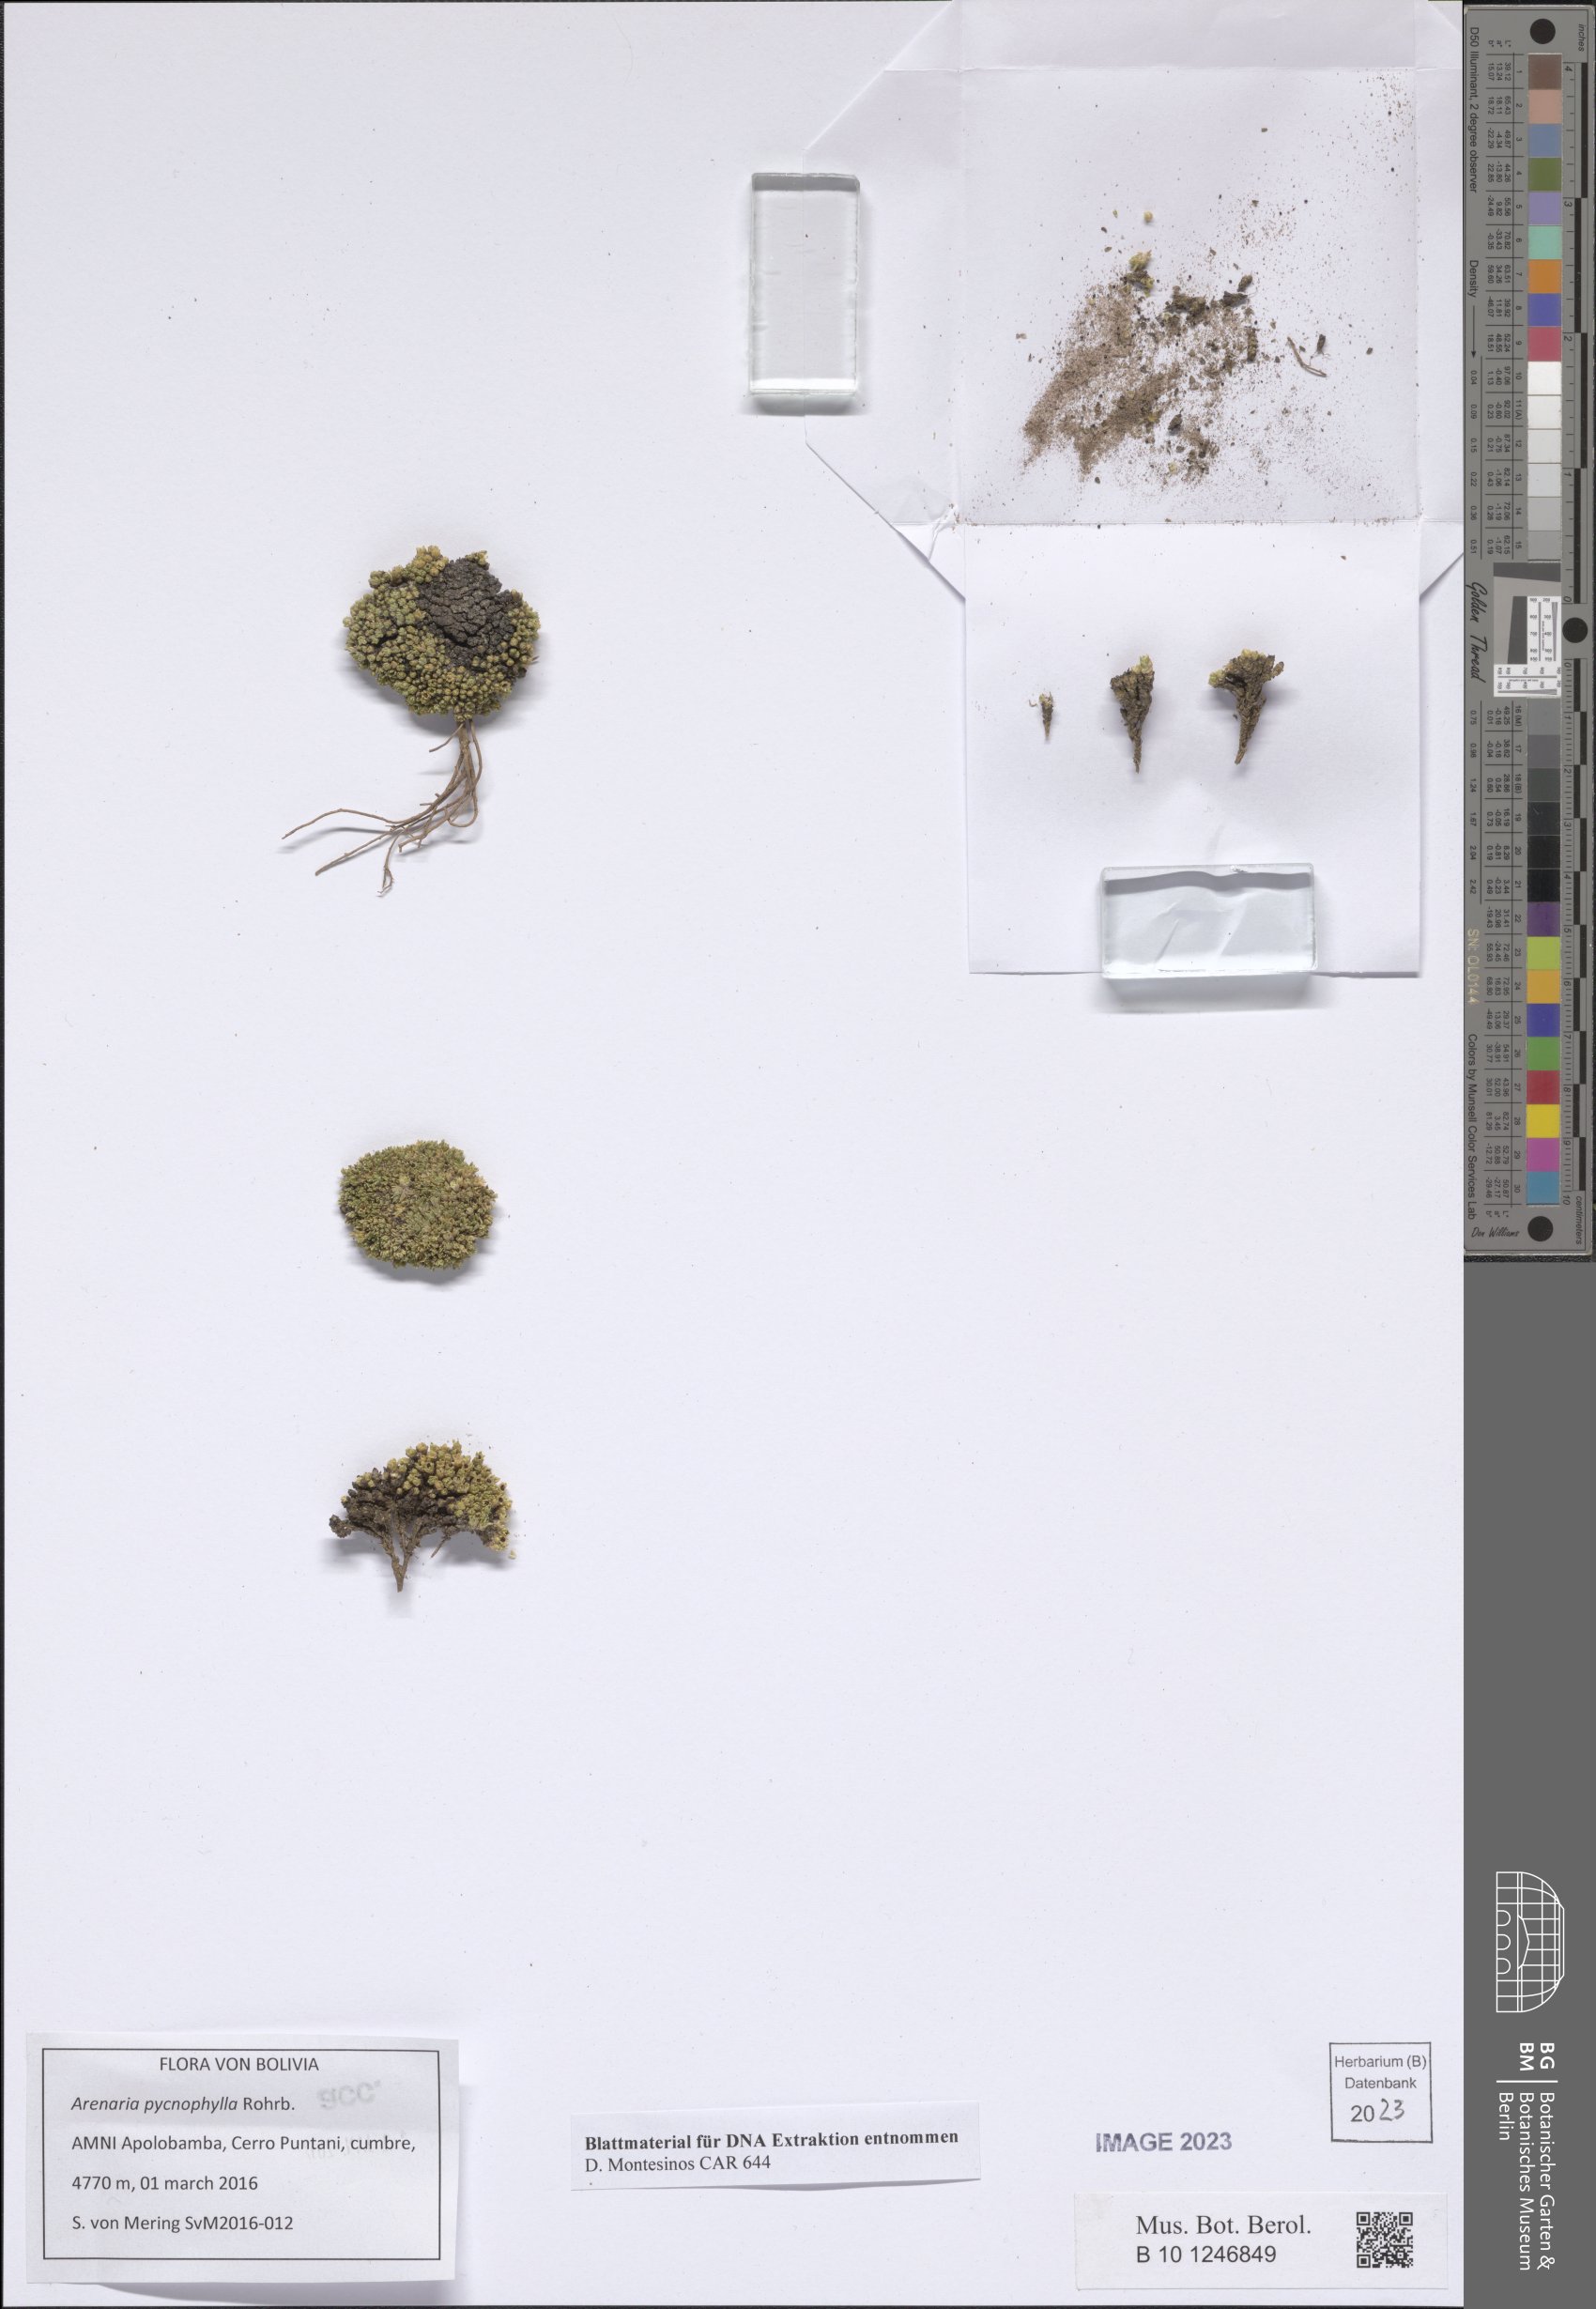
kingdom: Plantae
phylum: Tracheophyta
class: Magnoliopsida
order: Caryophyllales
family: Caryophyllaceae
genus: Arenaria
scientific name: Arenaria pycnophylla
